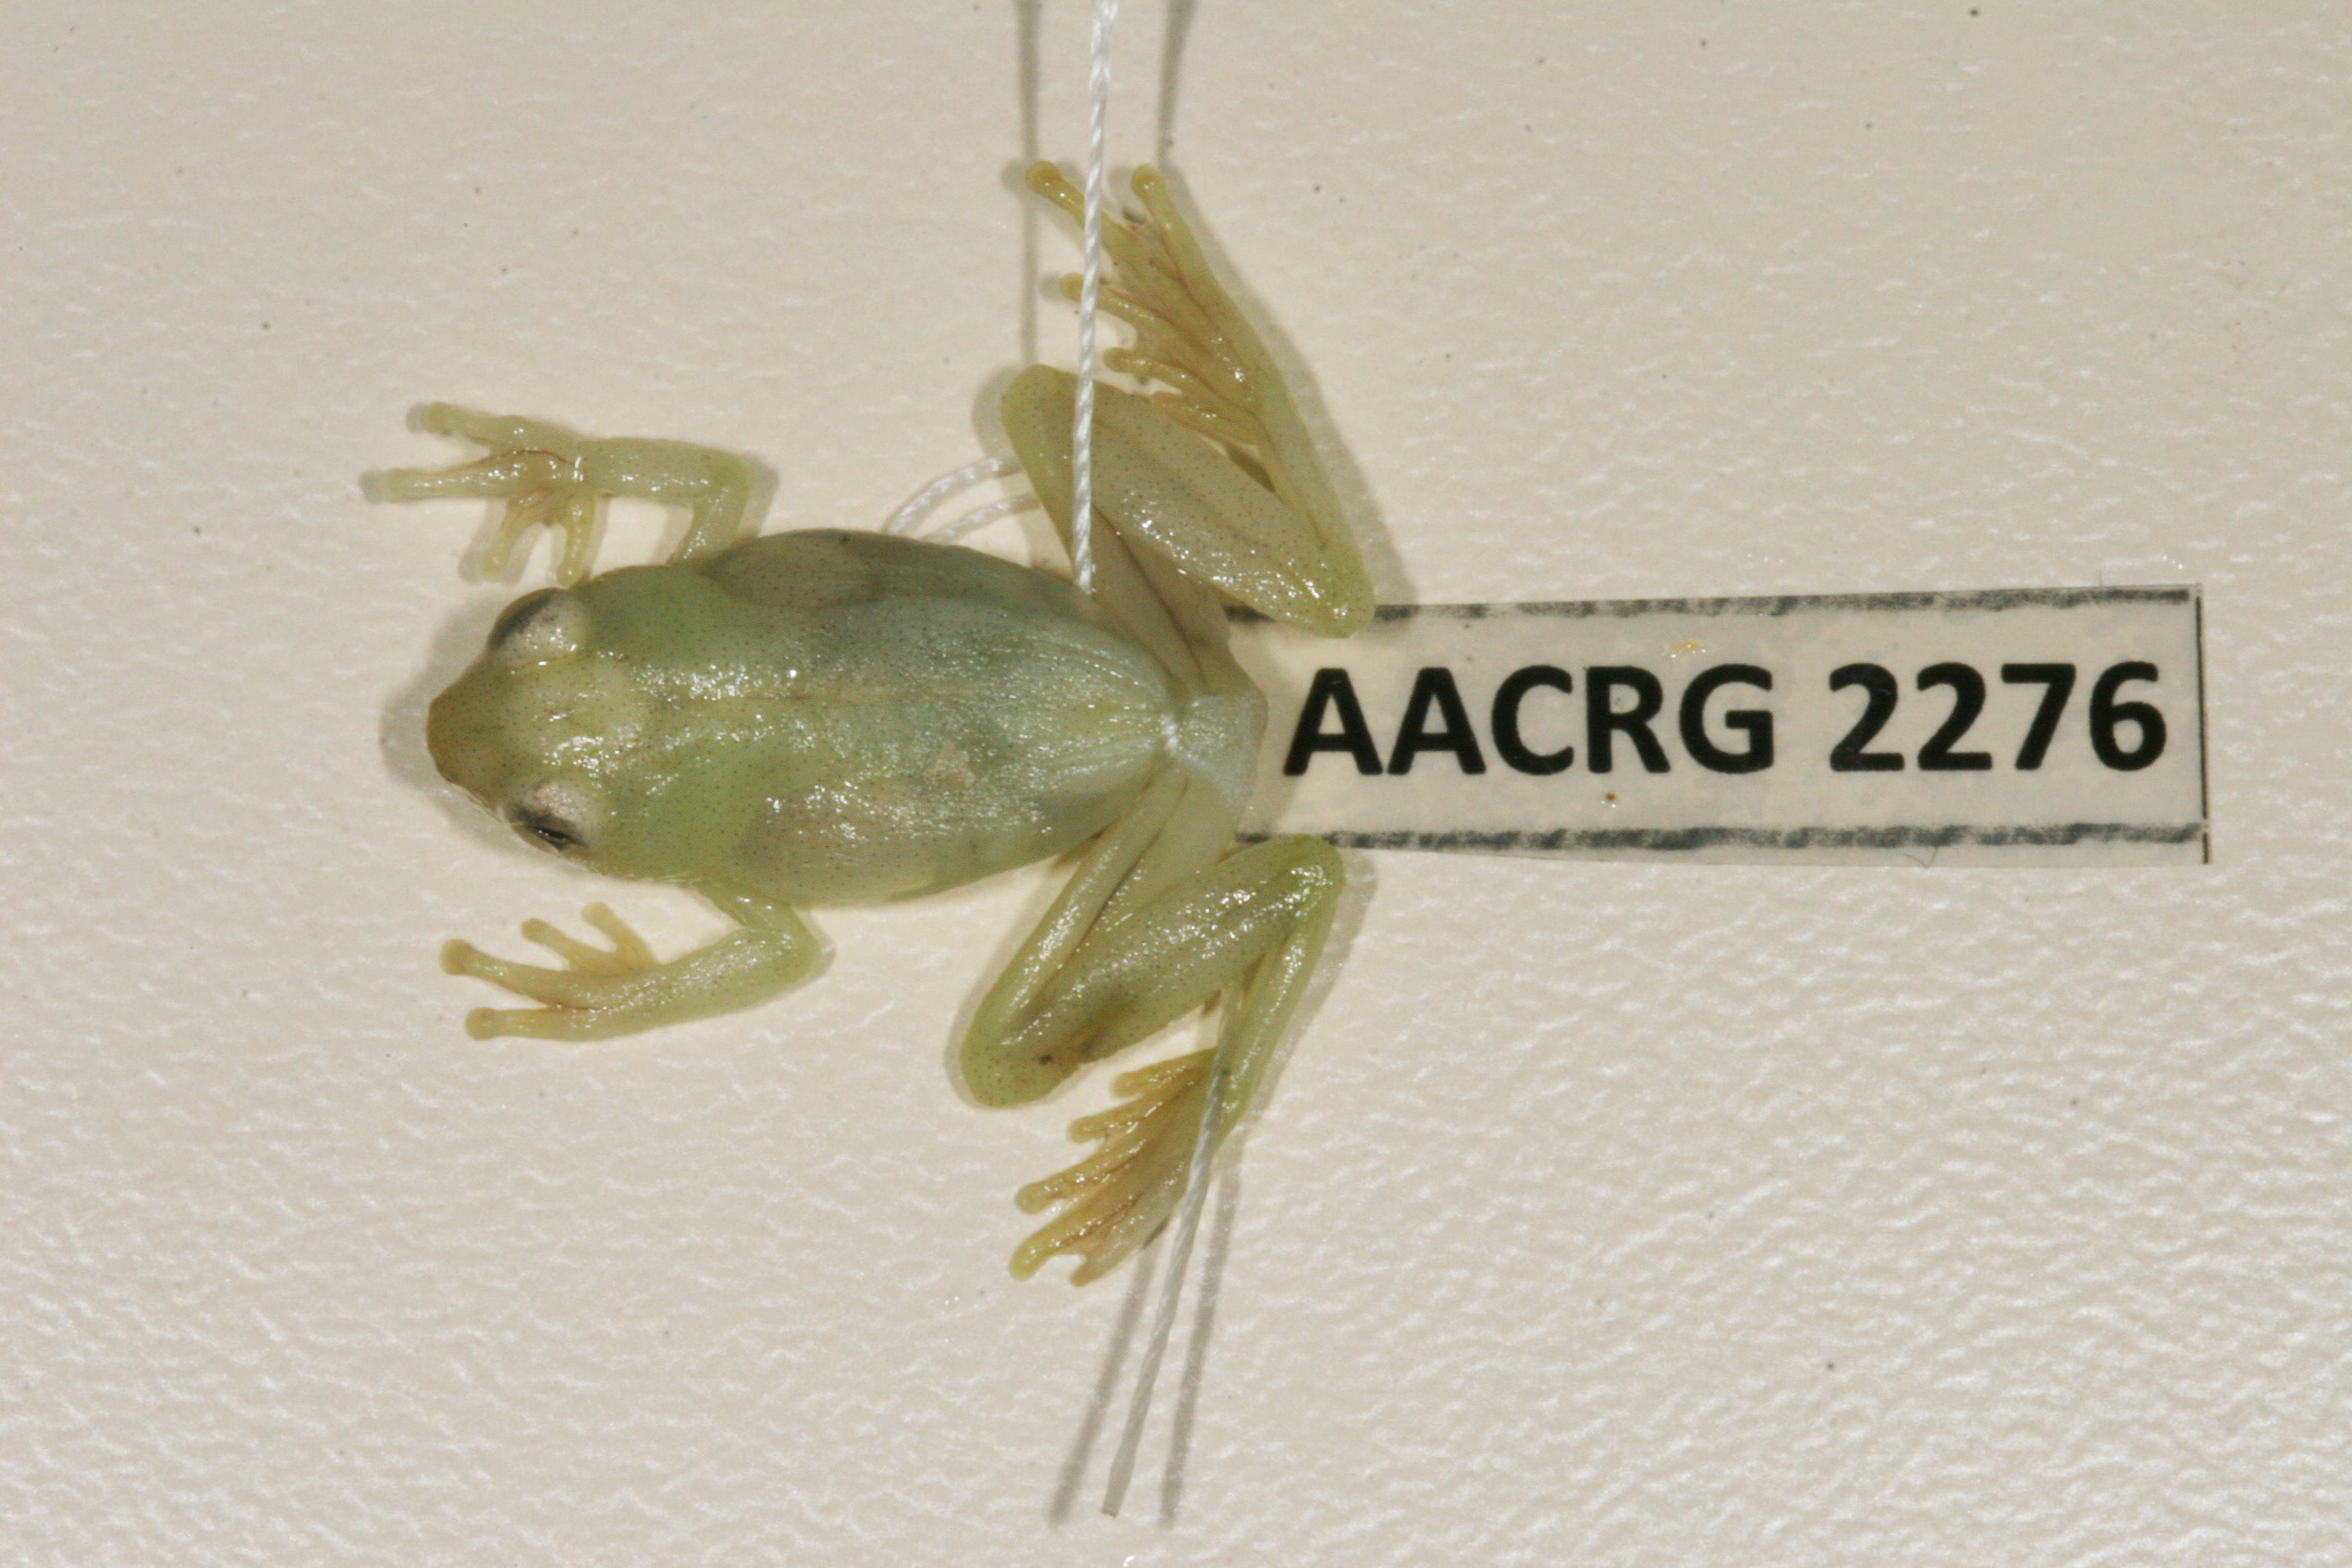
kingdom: Animalia
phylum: Chordata
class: Amphibia
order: Anura
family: Hyperoliidae
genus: Hyperolius
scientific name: Hyperolius pusillus
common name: Water lily reed frog
